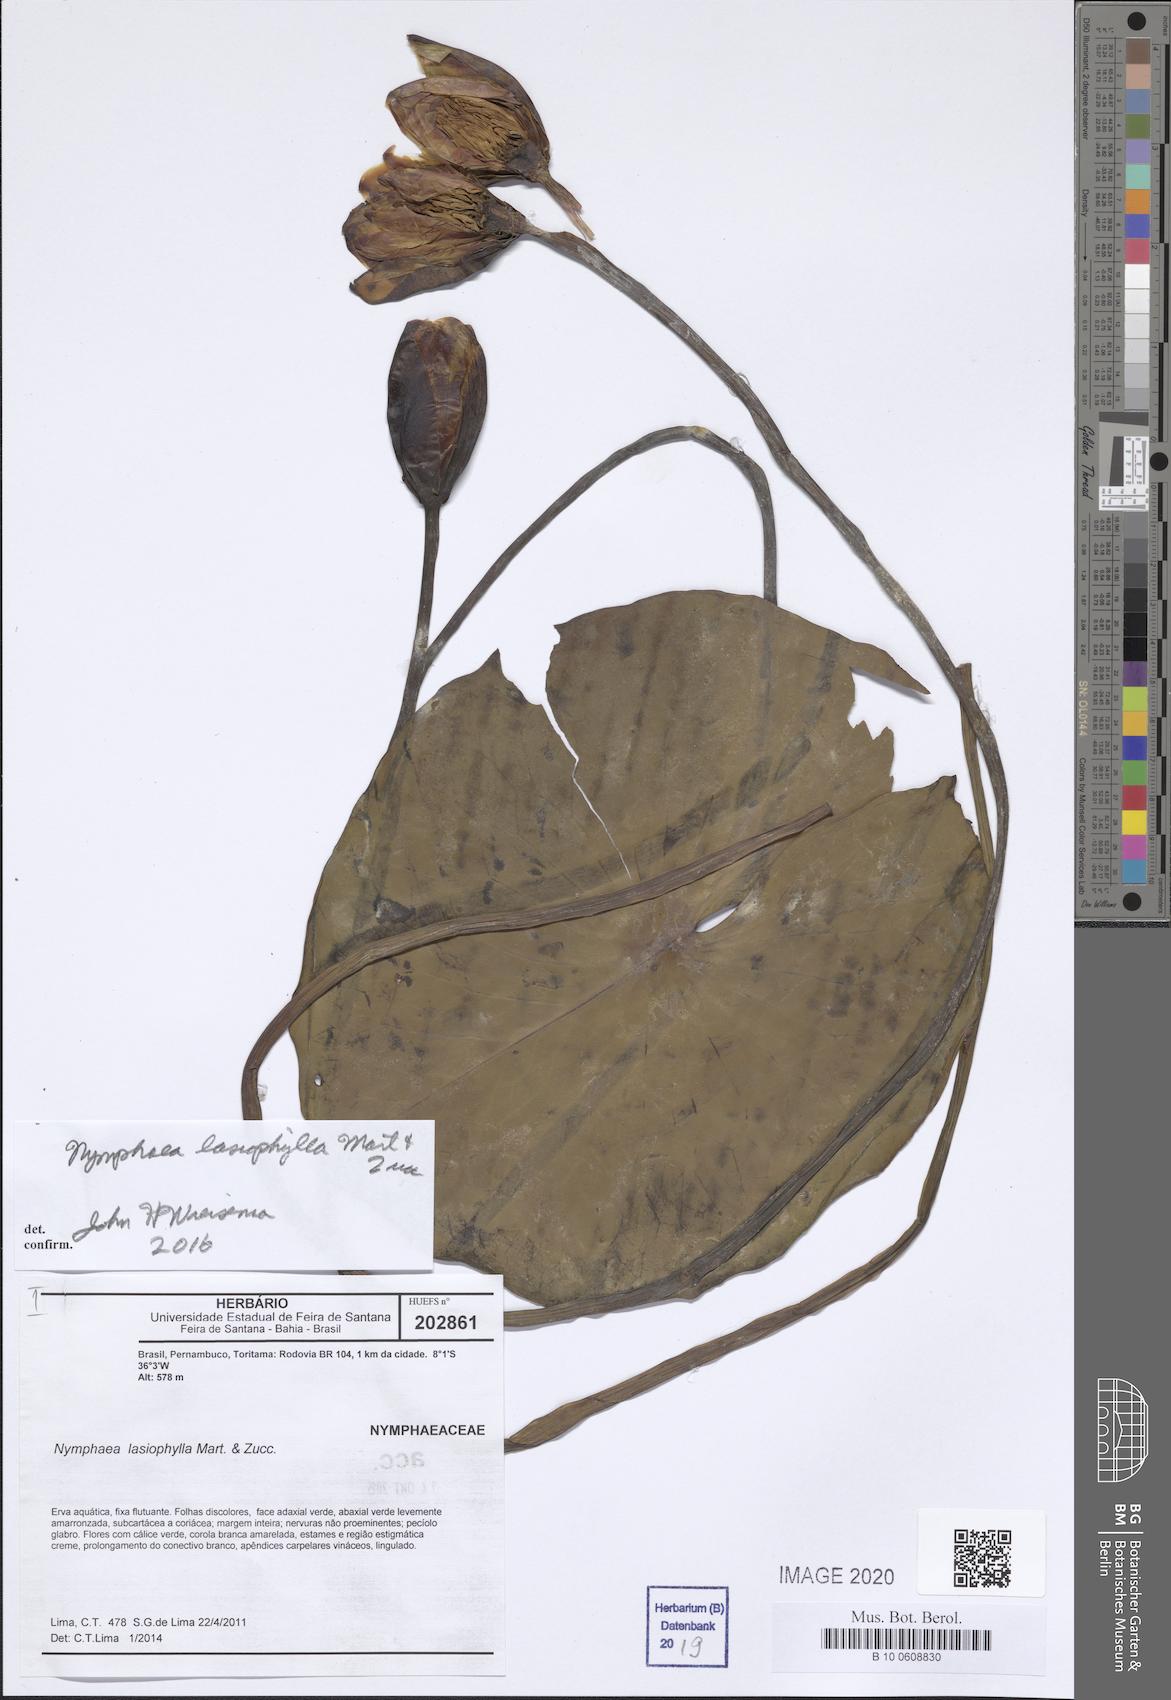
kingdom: Plantae
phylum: Tracheophyta
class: Magnoliopsida
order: Nymphaeales
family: Nymphaeaceae
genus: Nymphaea
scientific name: Nymphaea lasiophylla
